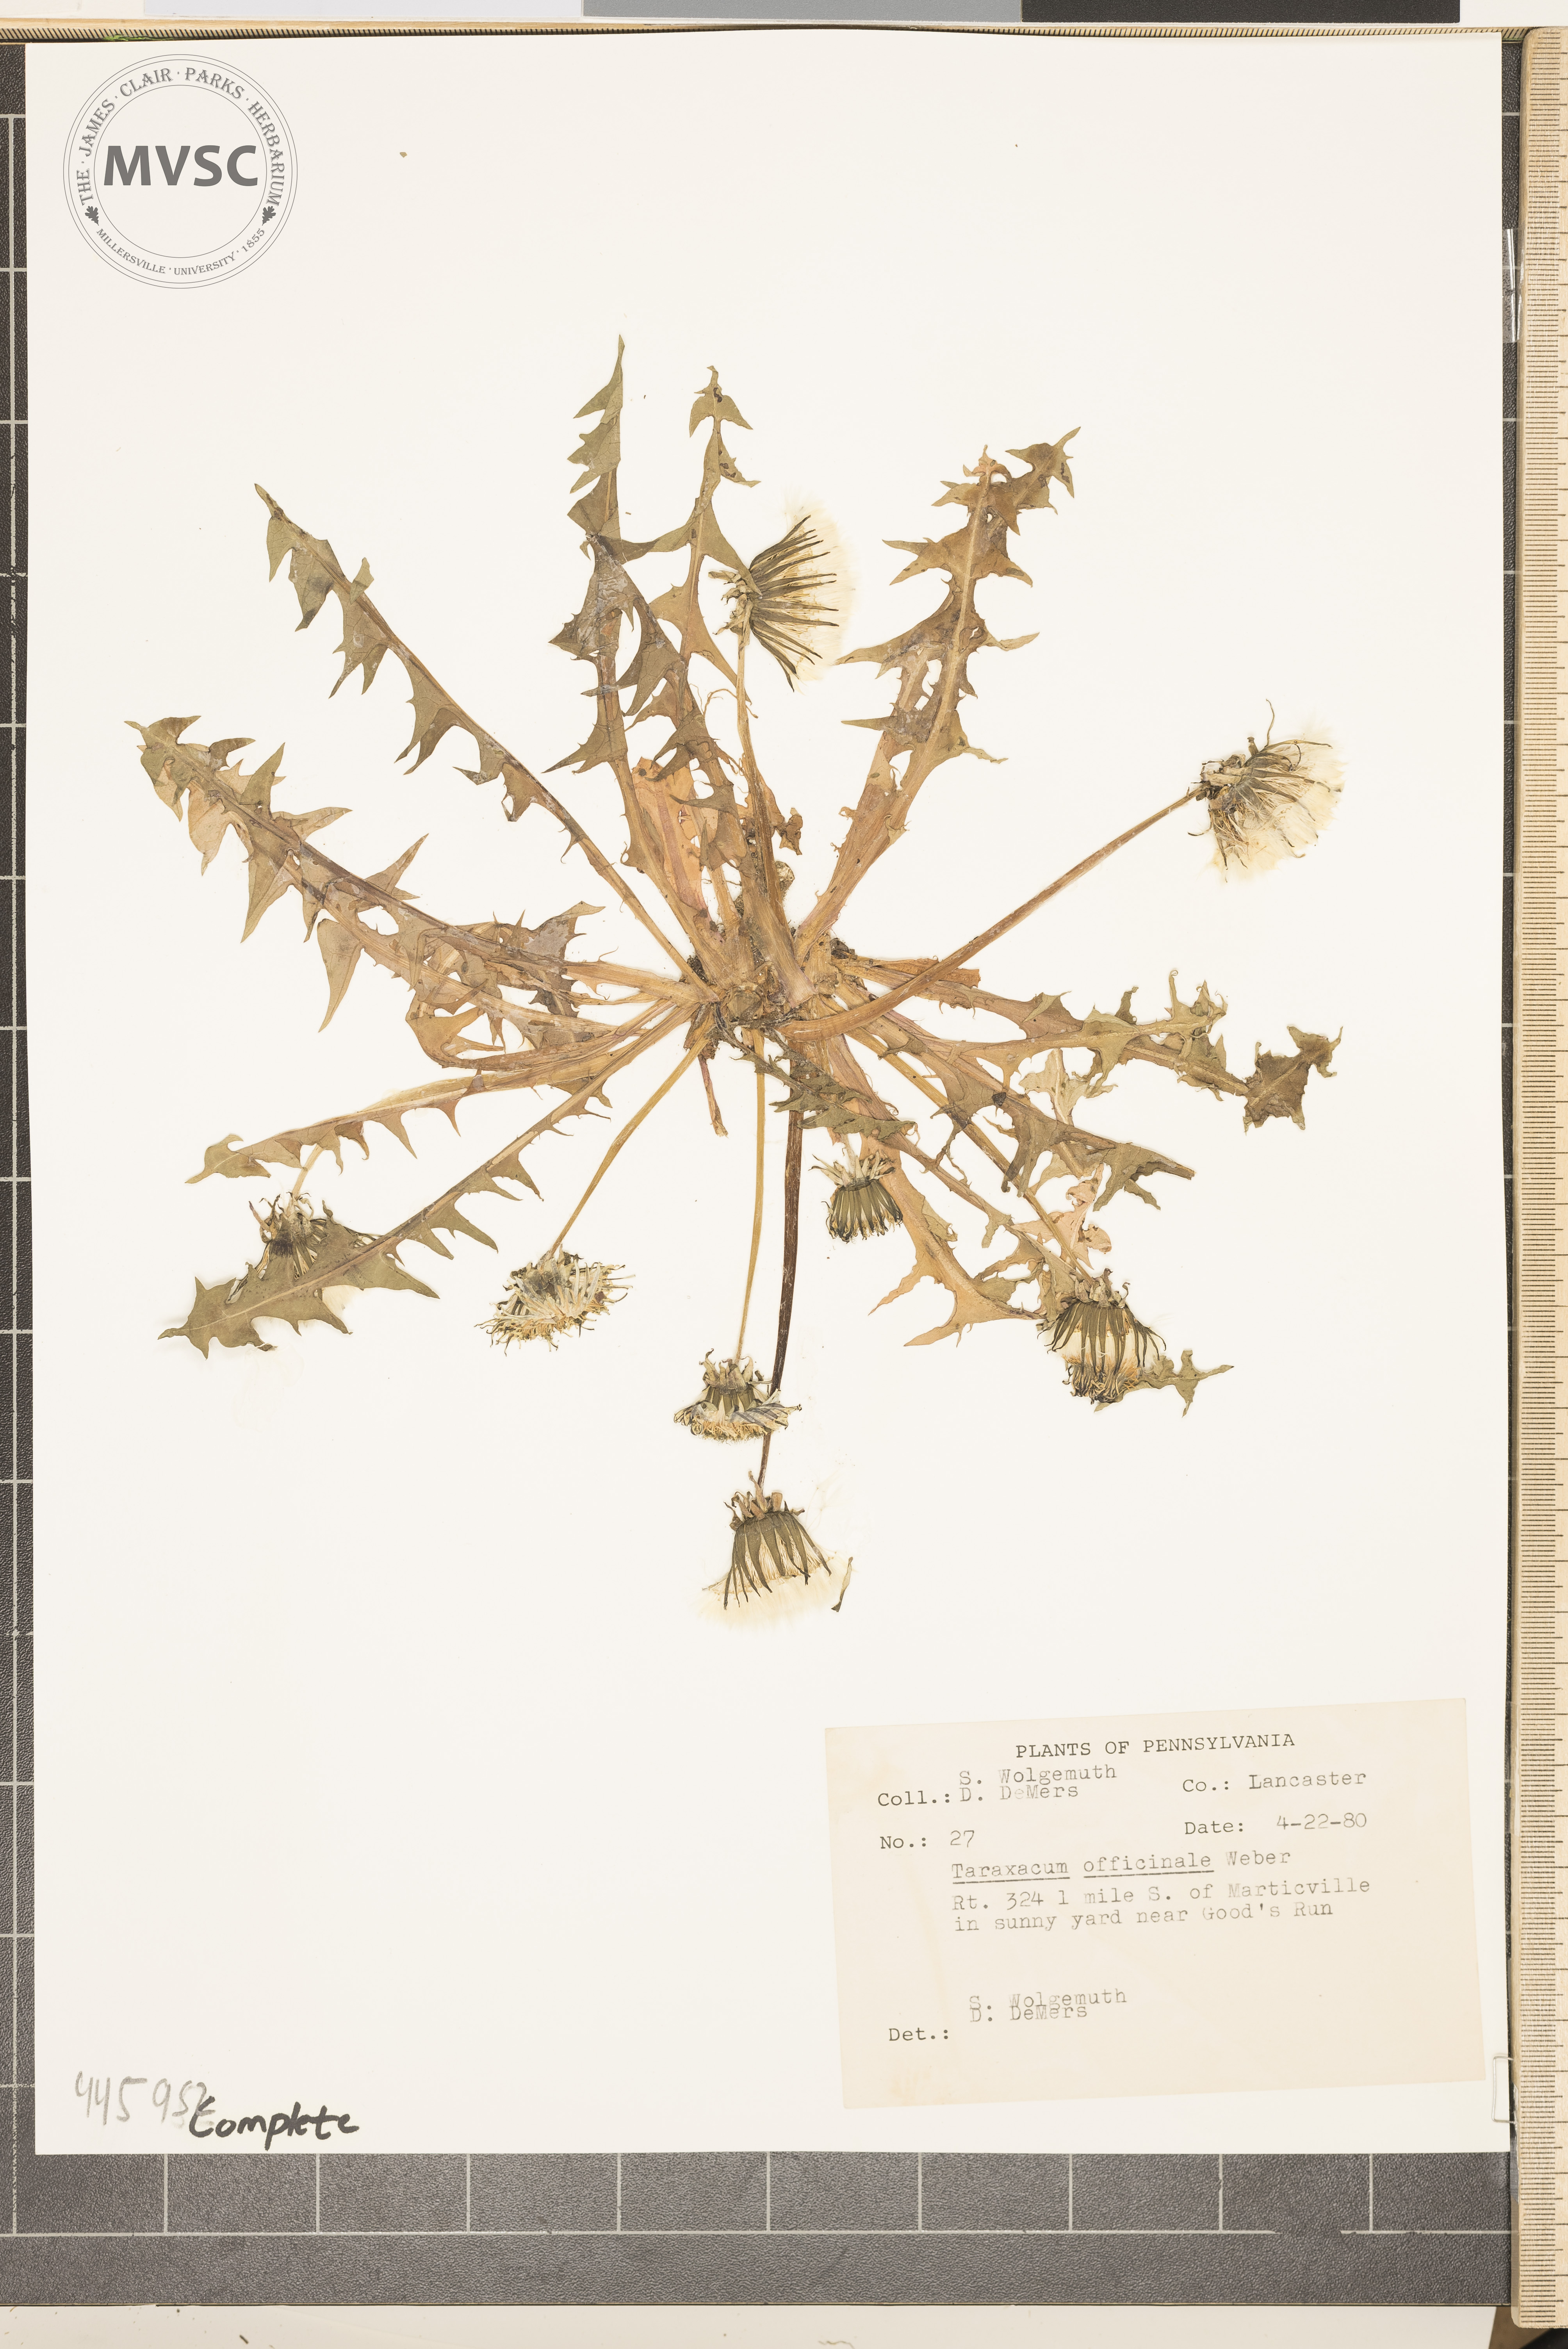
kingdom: Plantae
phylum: Tracheophyta
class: Magnoliopsida
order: Asterales
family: Asteraceae
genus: Taraxacum
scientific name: Taraxacum officinale
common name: Common dandelion
